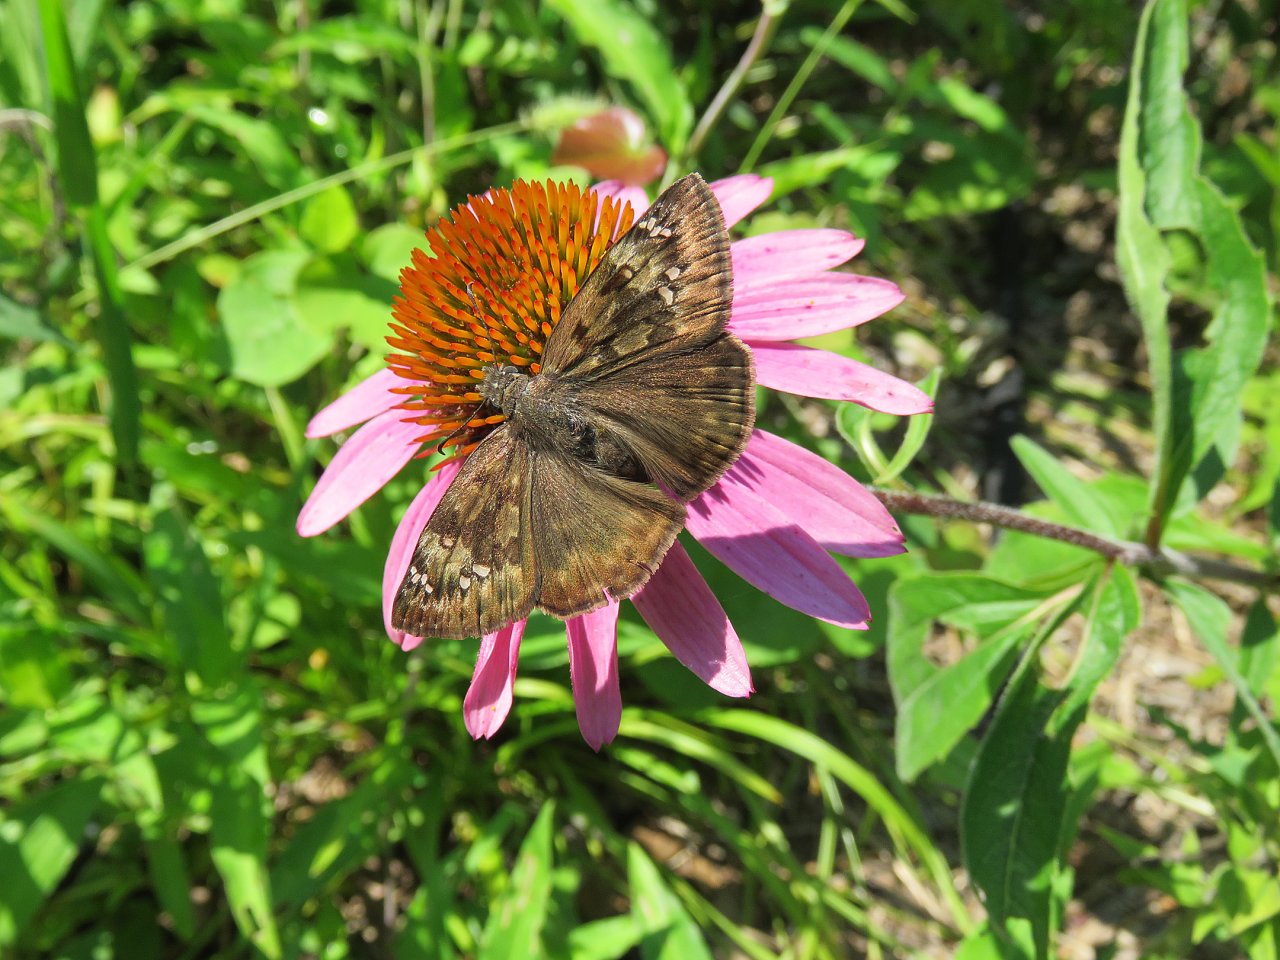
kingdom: Animalia
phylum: Arthropoda
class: Insecta
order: Lepidoptera
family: Hesperiidae
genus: Gesta
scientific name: Gesta
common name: Horace's Duskywing
